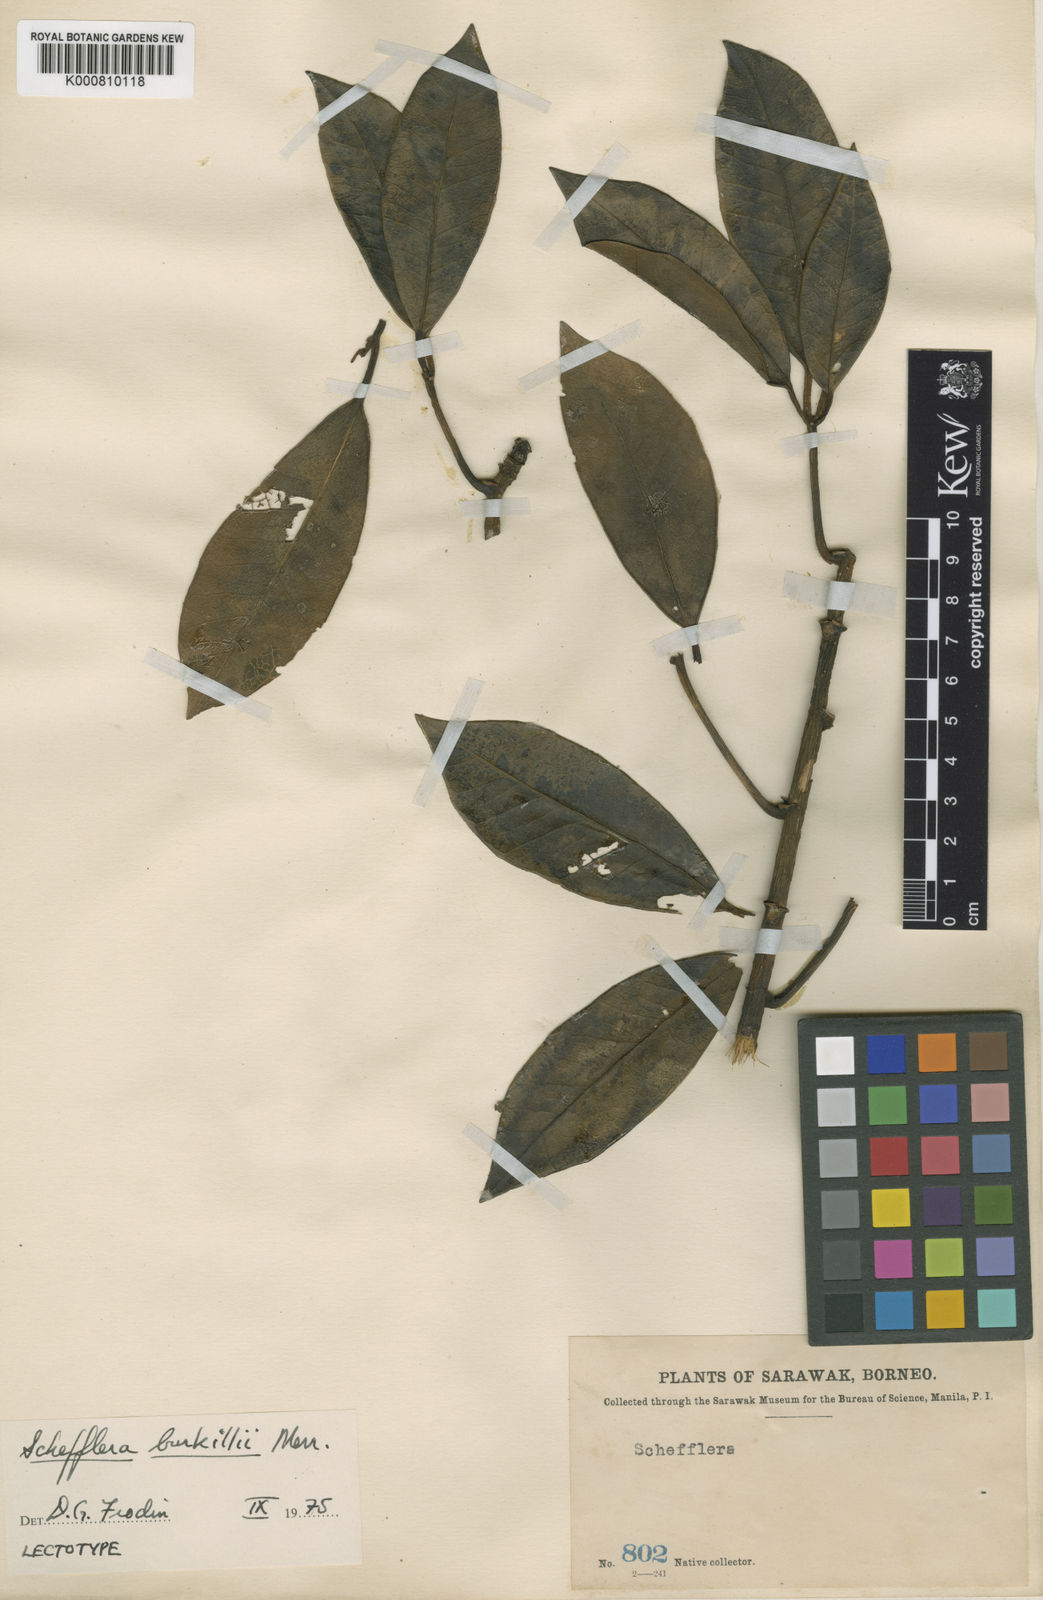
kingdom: Plantae
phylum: Tracheophyta
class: Magnoliopsida
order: Apiales
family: Araliaceae
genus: Heptapleurum
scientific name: Heptapleurum burkillii
